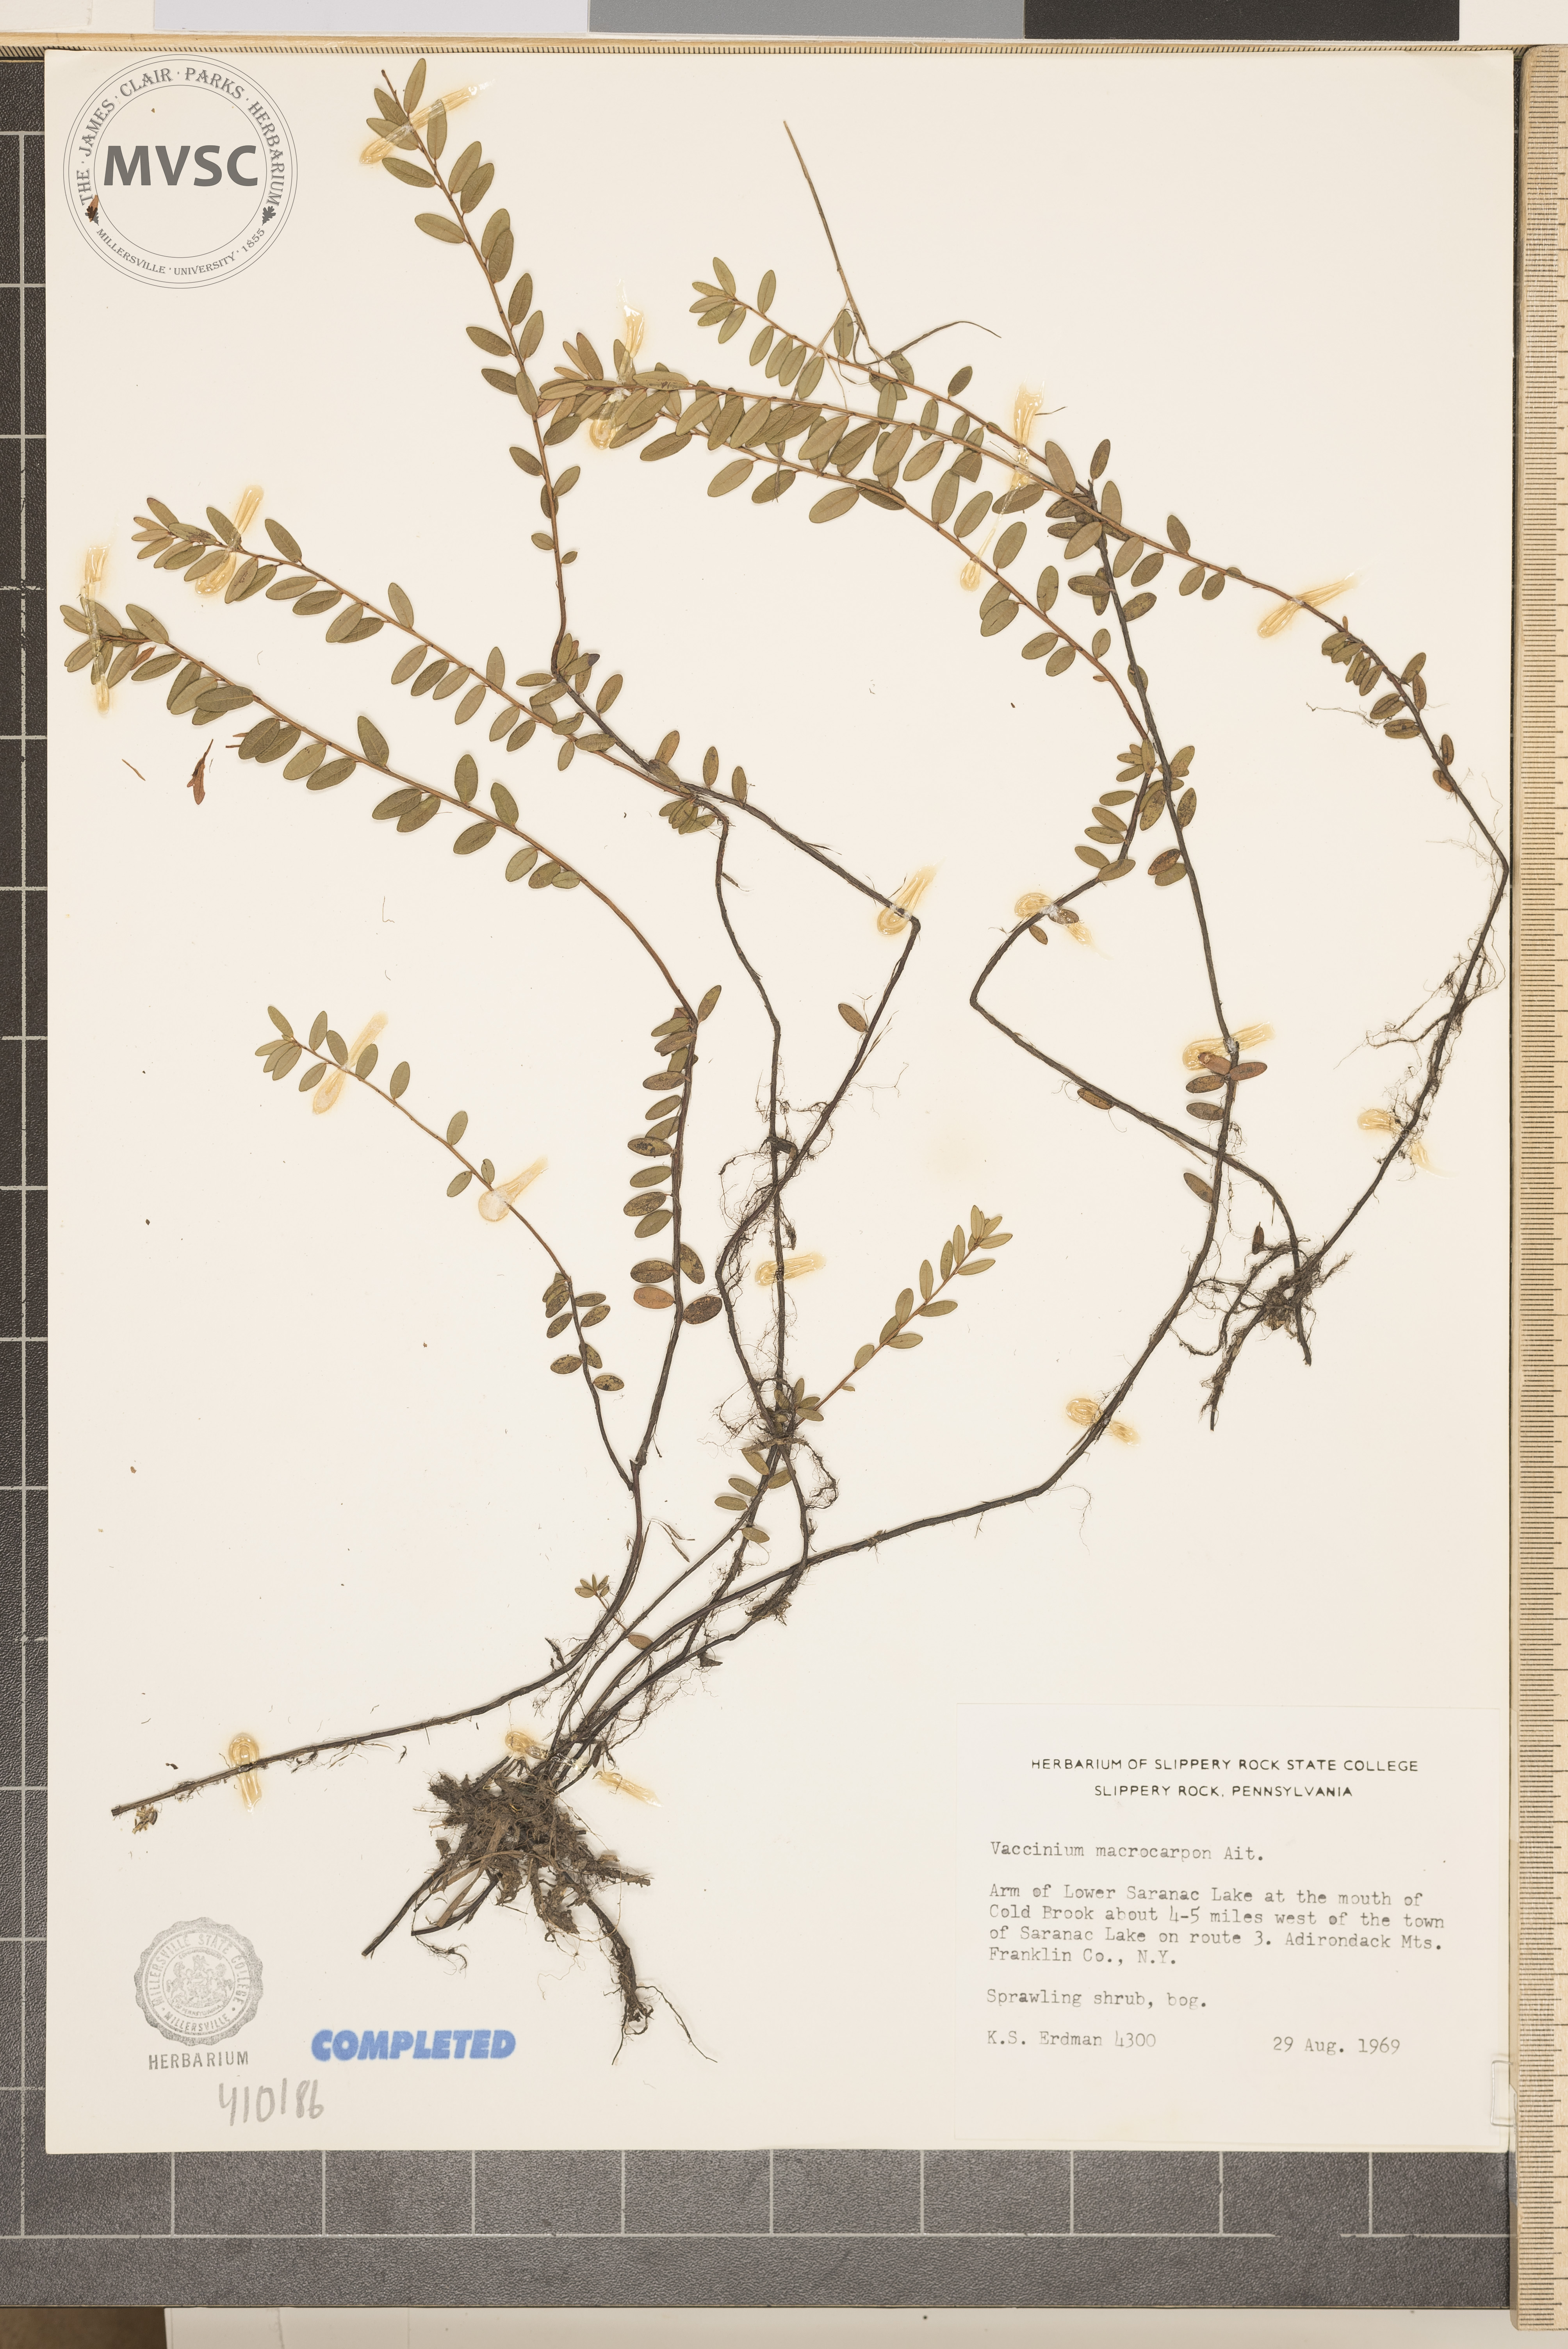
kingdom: Plantae
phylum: Tracheophyta
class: Magnoliopsida
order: Ericales
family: Ericaceae
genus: Vaccinium
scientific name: Vaccinium macrocarpon
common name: American cranberry
